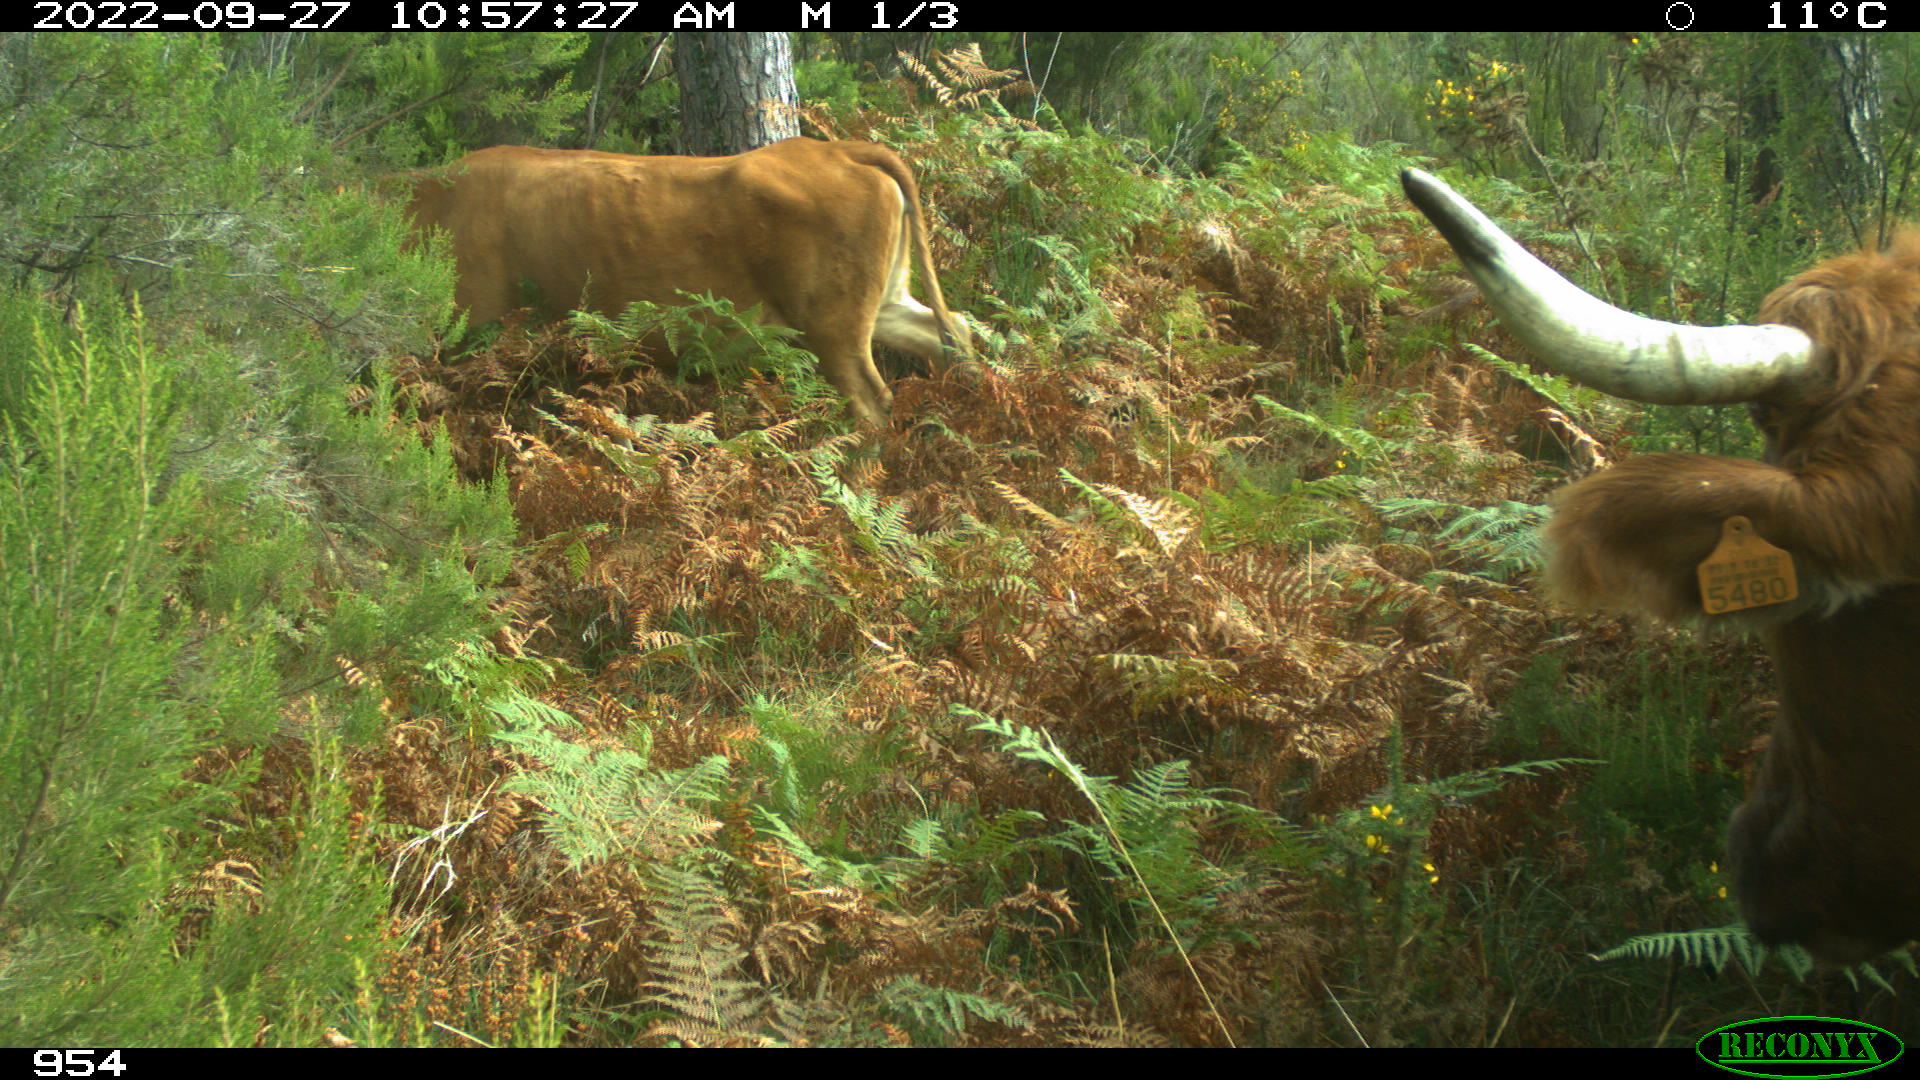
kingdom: Animalia
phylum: Chordata
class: Mammalia
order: Artiodactyla
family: Bovidae
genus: Bos
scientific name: Bos taurus
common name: Domesticated cattle
